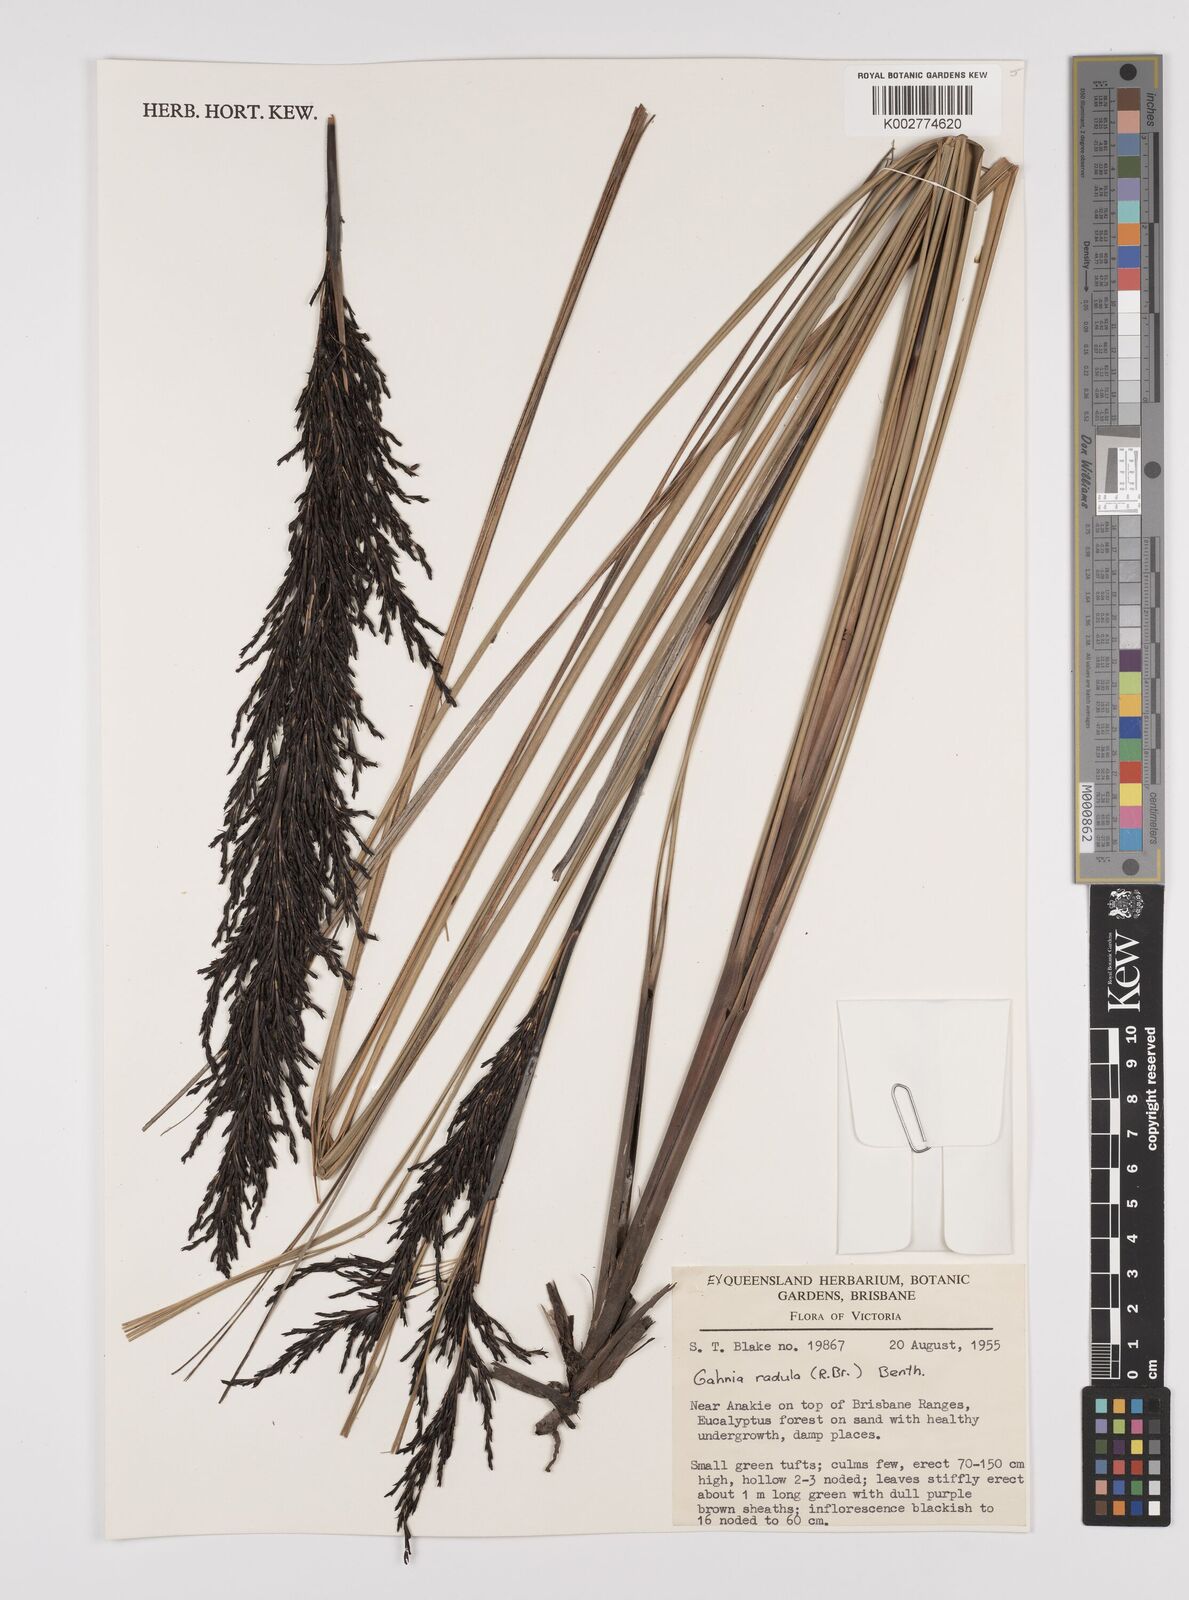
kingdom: Plantae
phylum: Tracheophyta
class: Liliopsida
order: Poales
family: Cyperaceae
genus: Gahnia
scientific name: Gahnia radula
